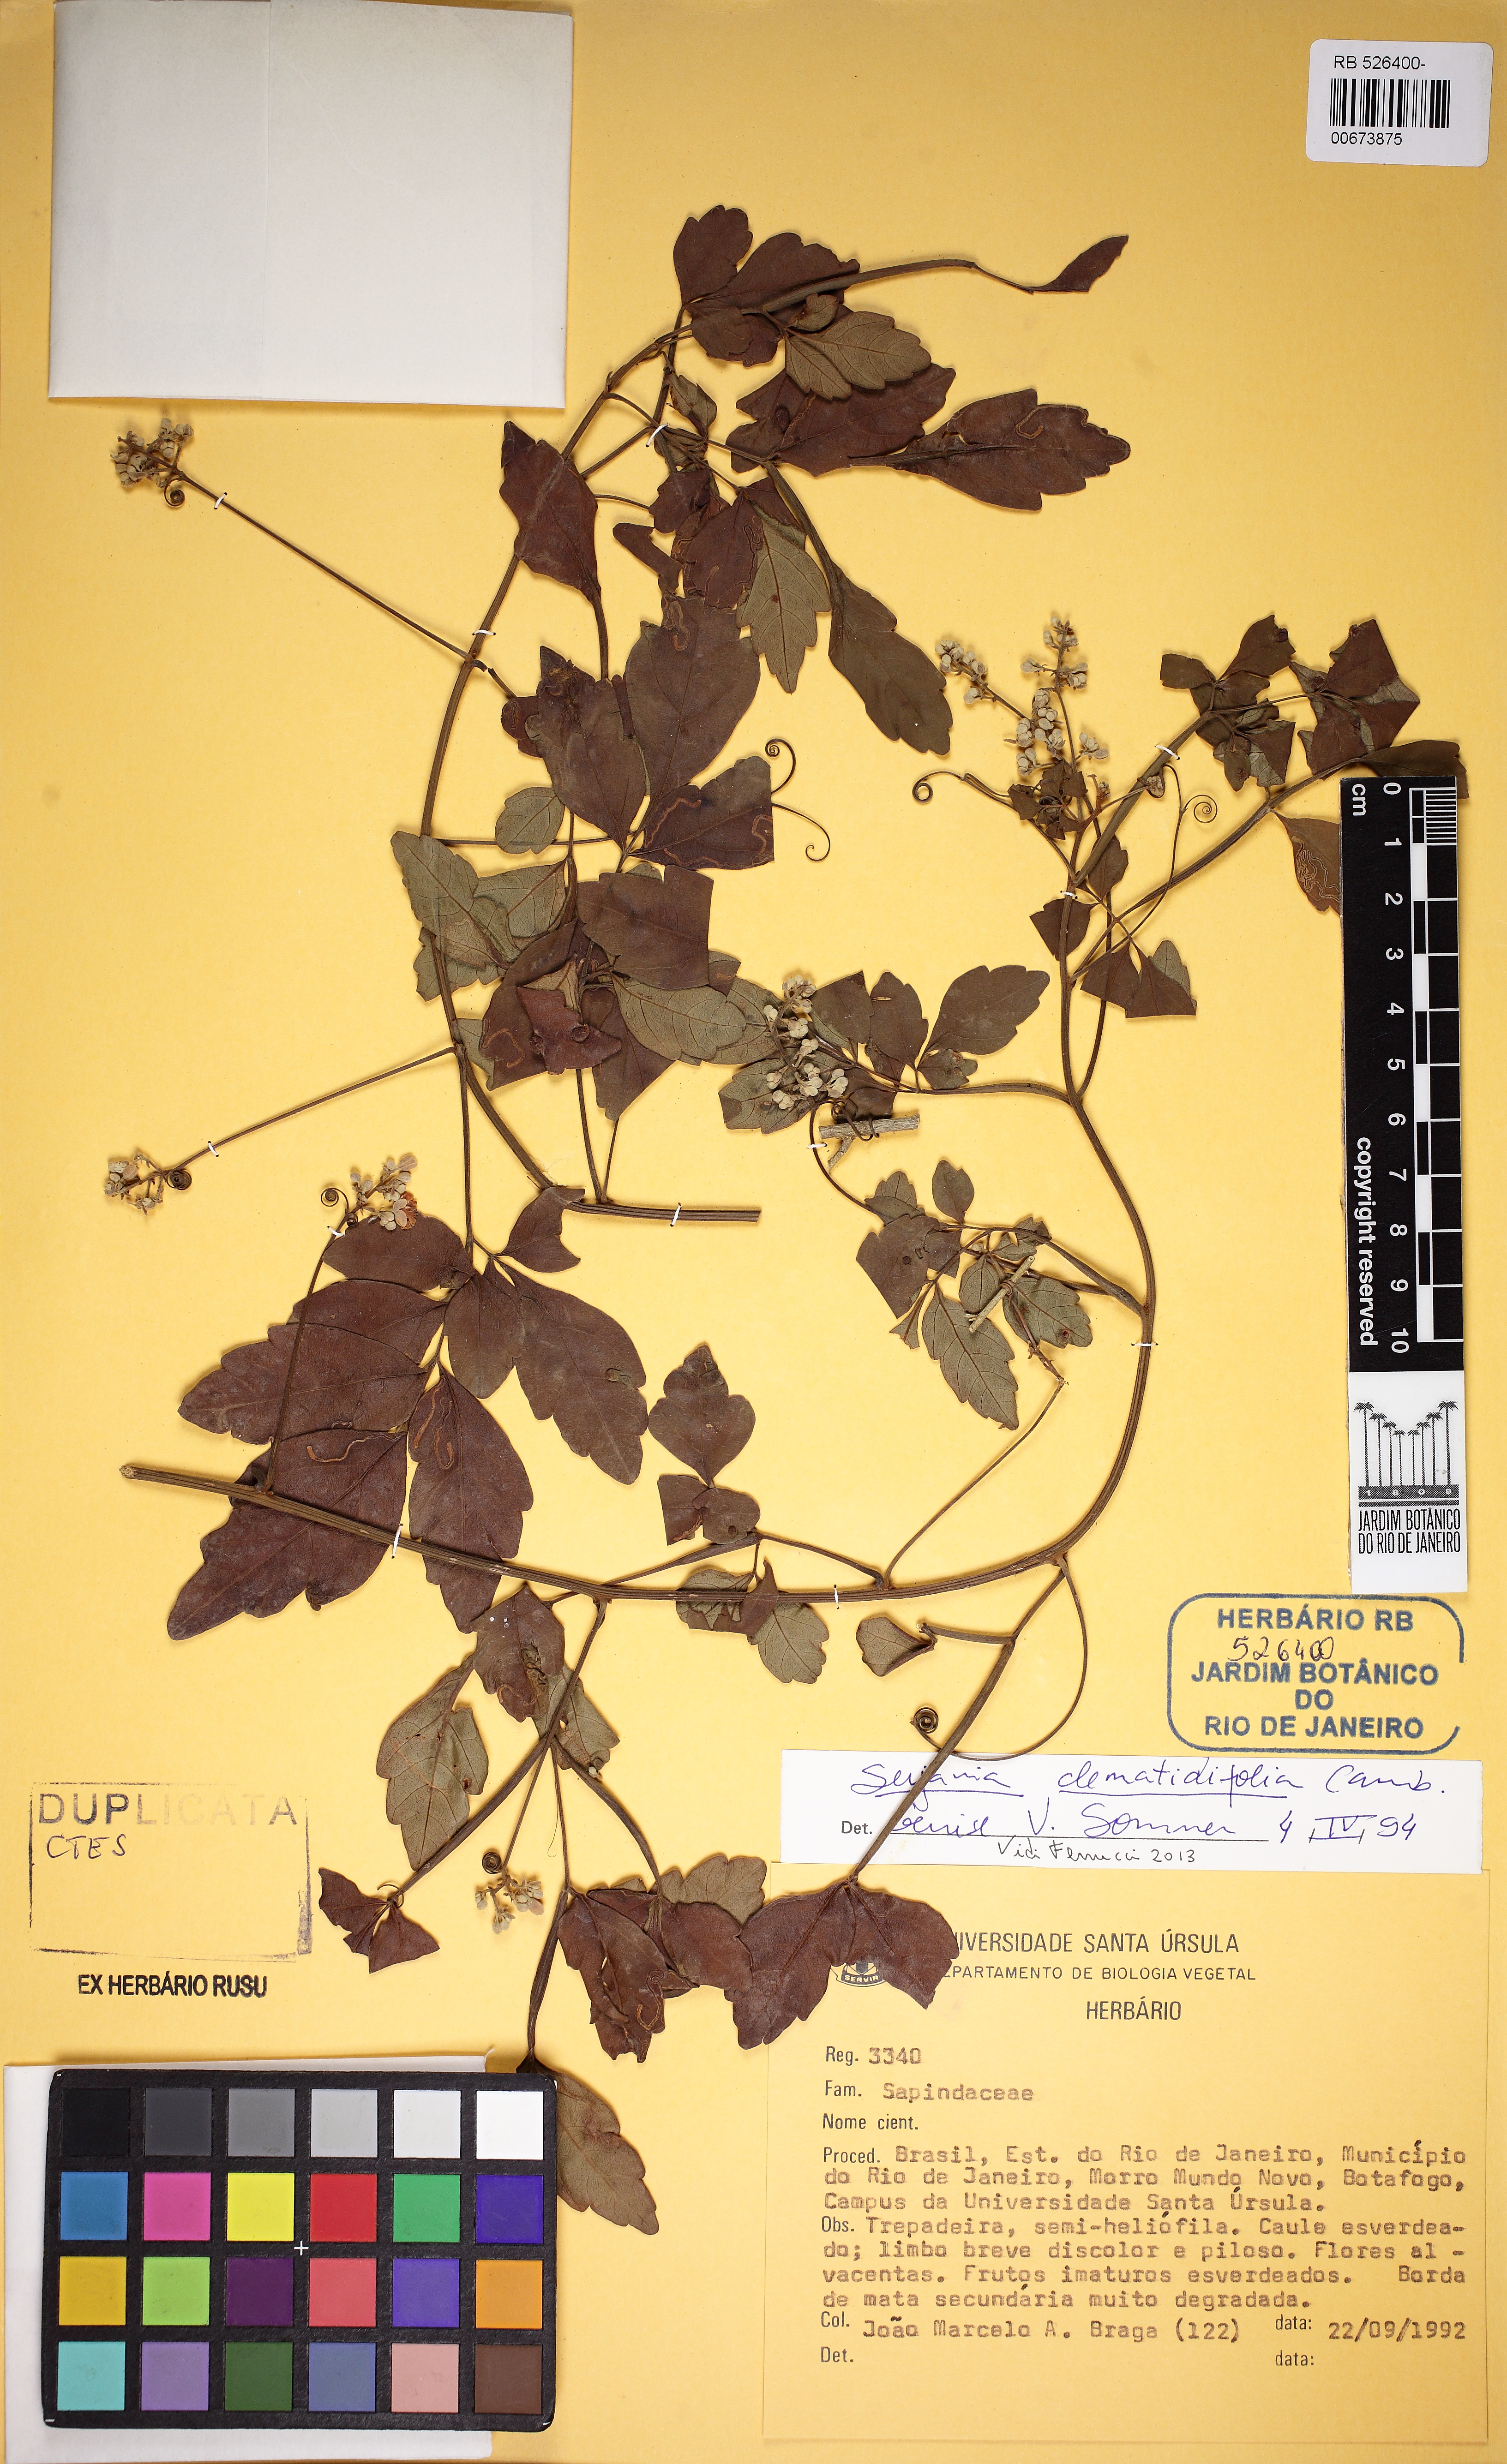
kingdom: Plantae
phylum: Tracheophyta
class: Magnoliopsida
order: Sapindales
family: Sapindaceae
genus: Serjania
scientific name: Serjania clematidifolia
